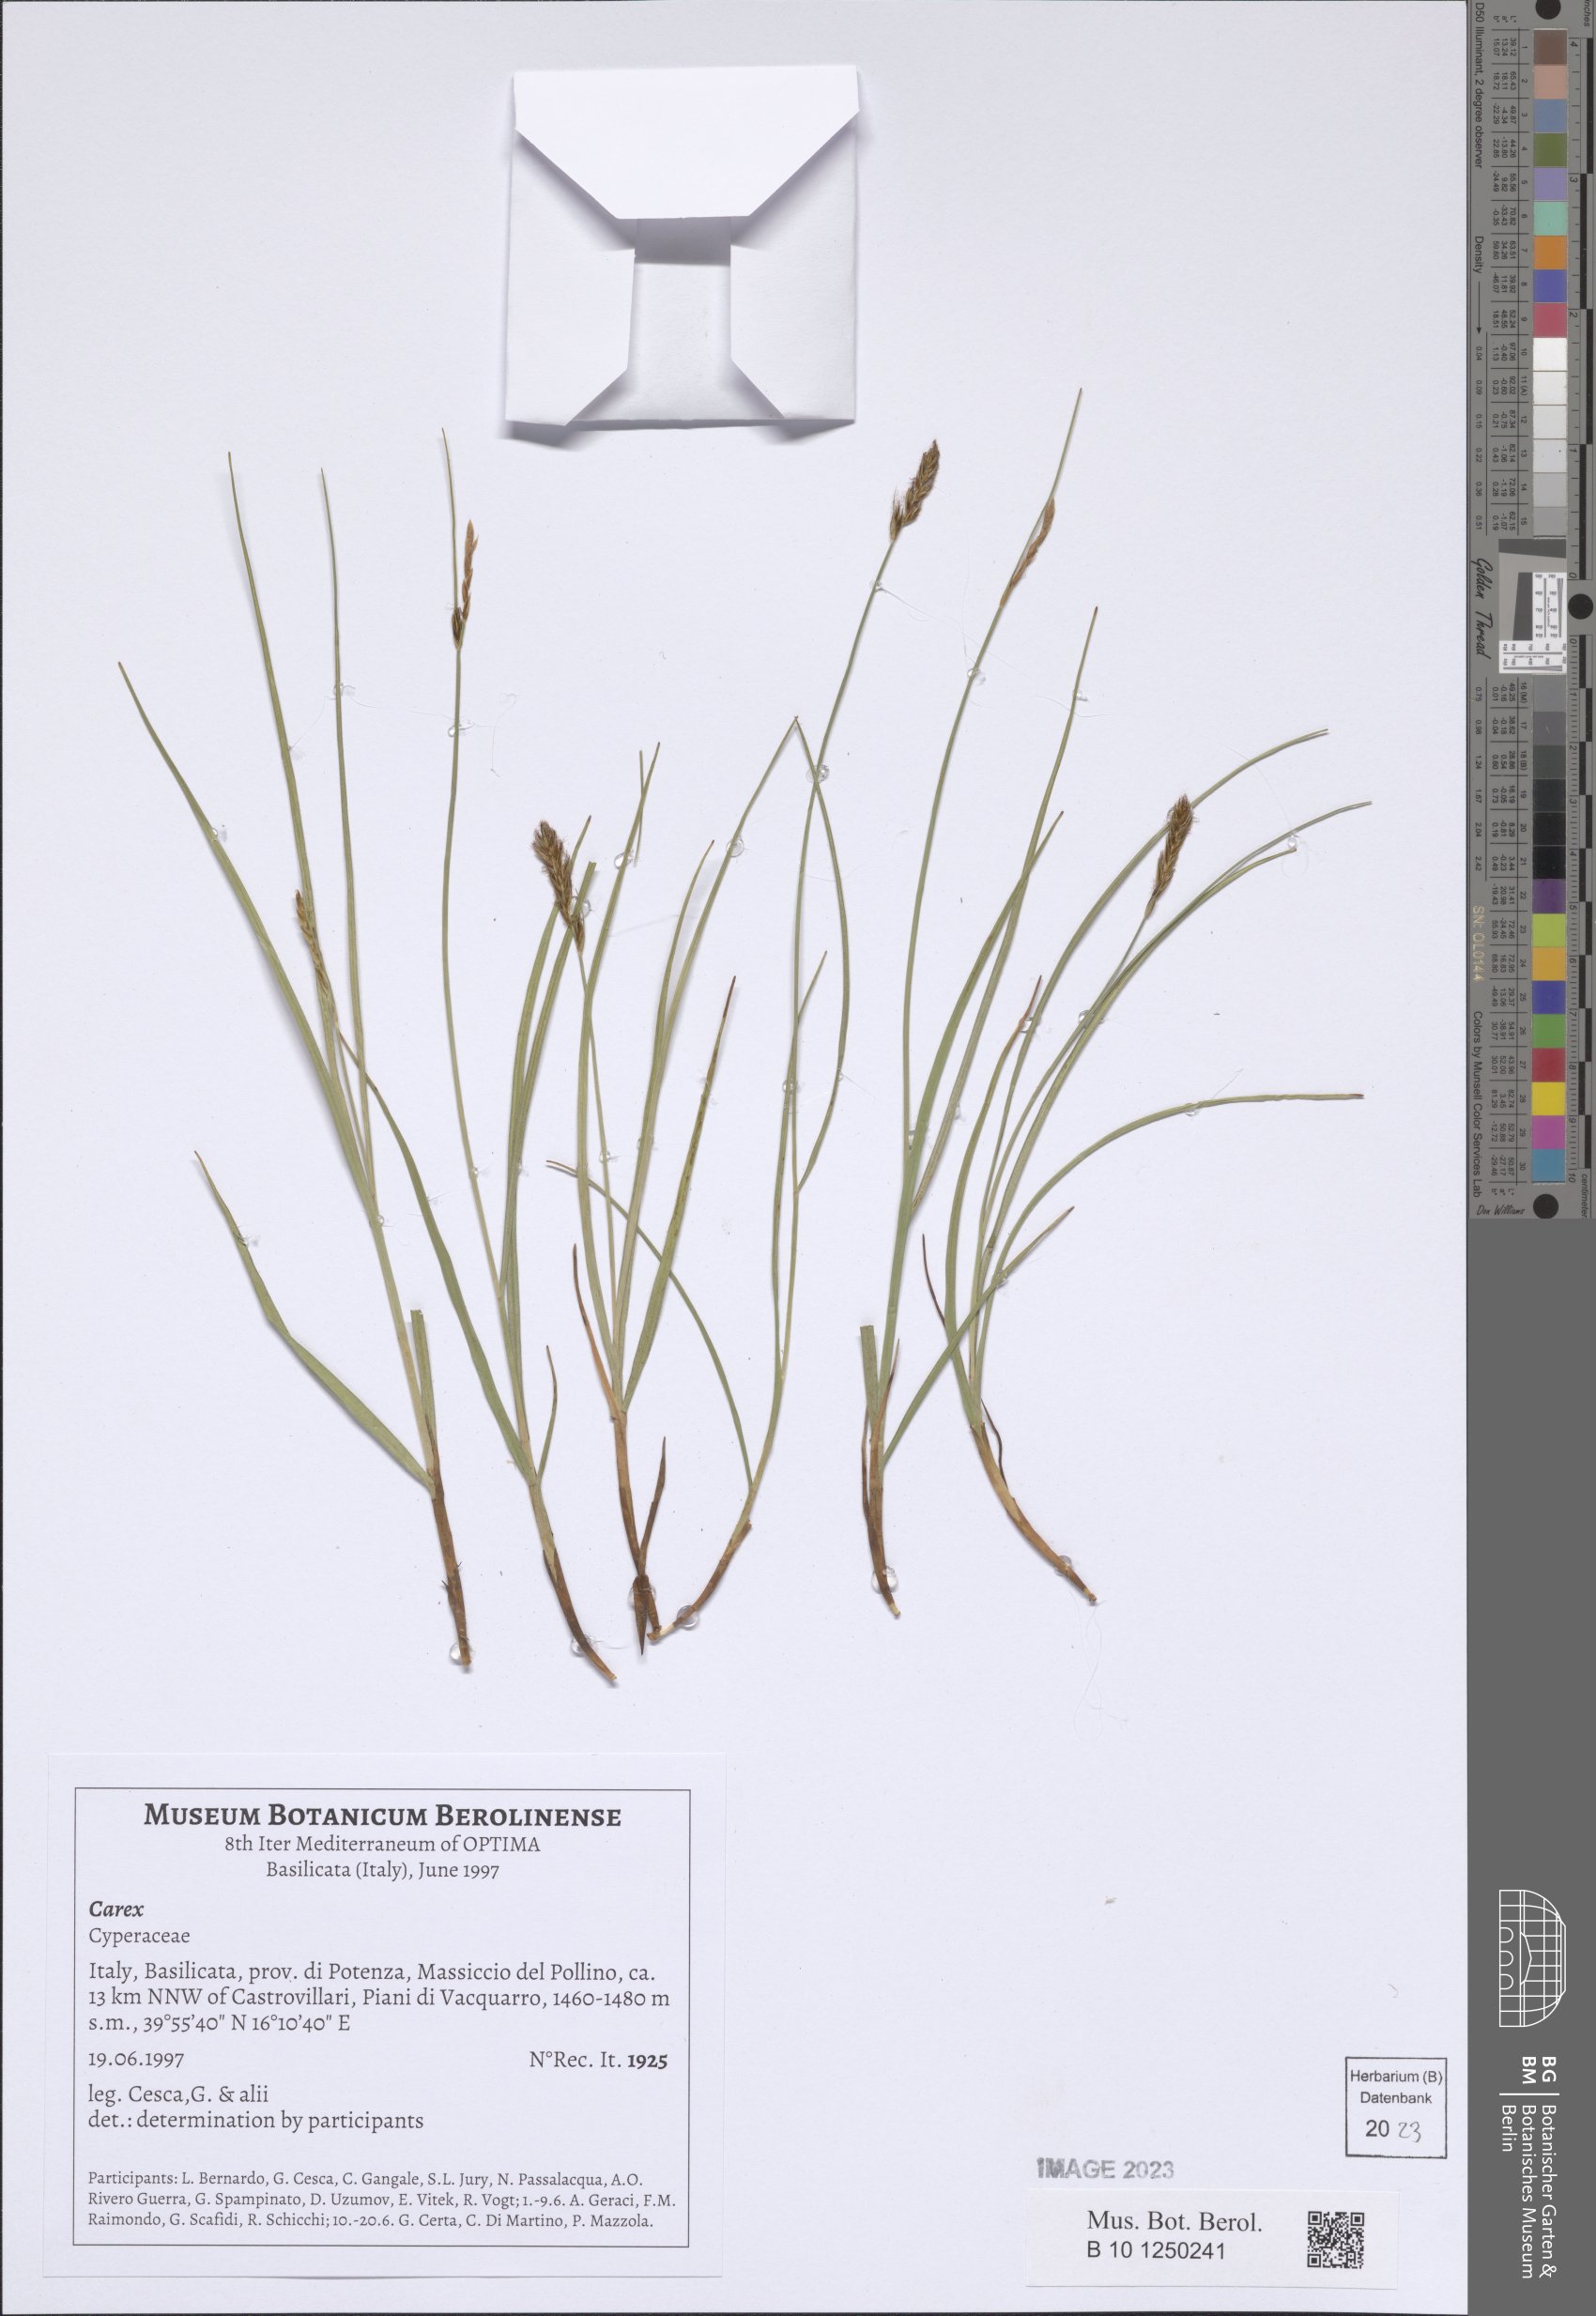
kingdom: Plantae
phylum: Tracheophyta
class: Liliopsida
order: Poales
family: Cyperaceae
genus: Carex
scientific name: Carex
